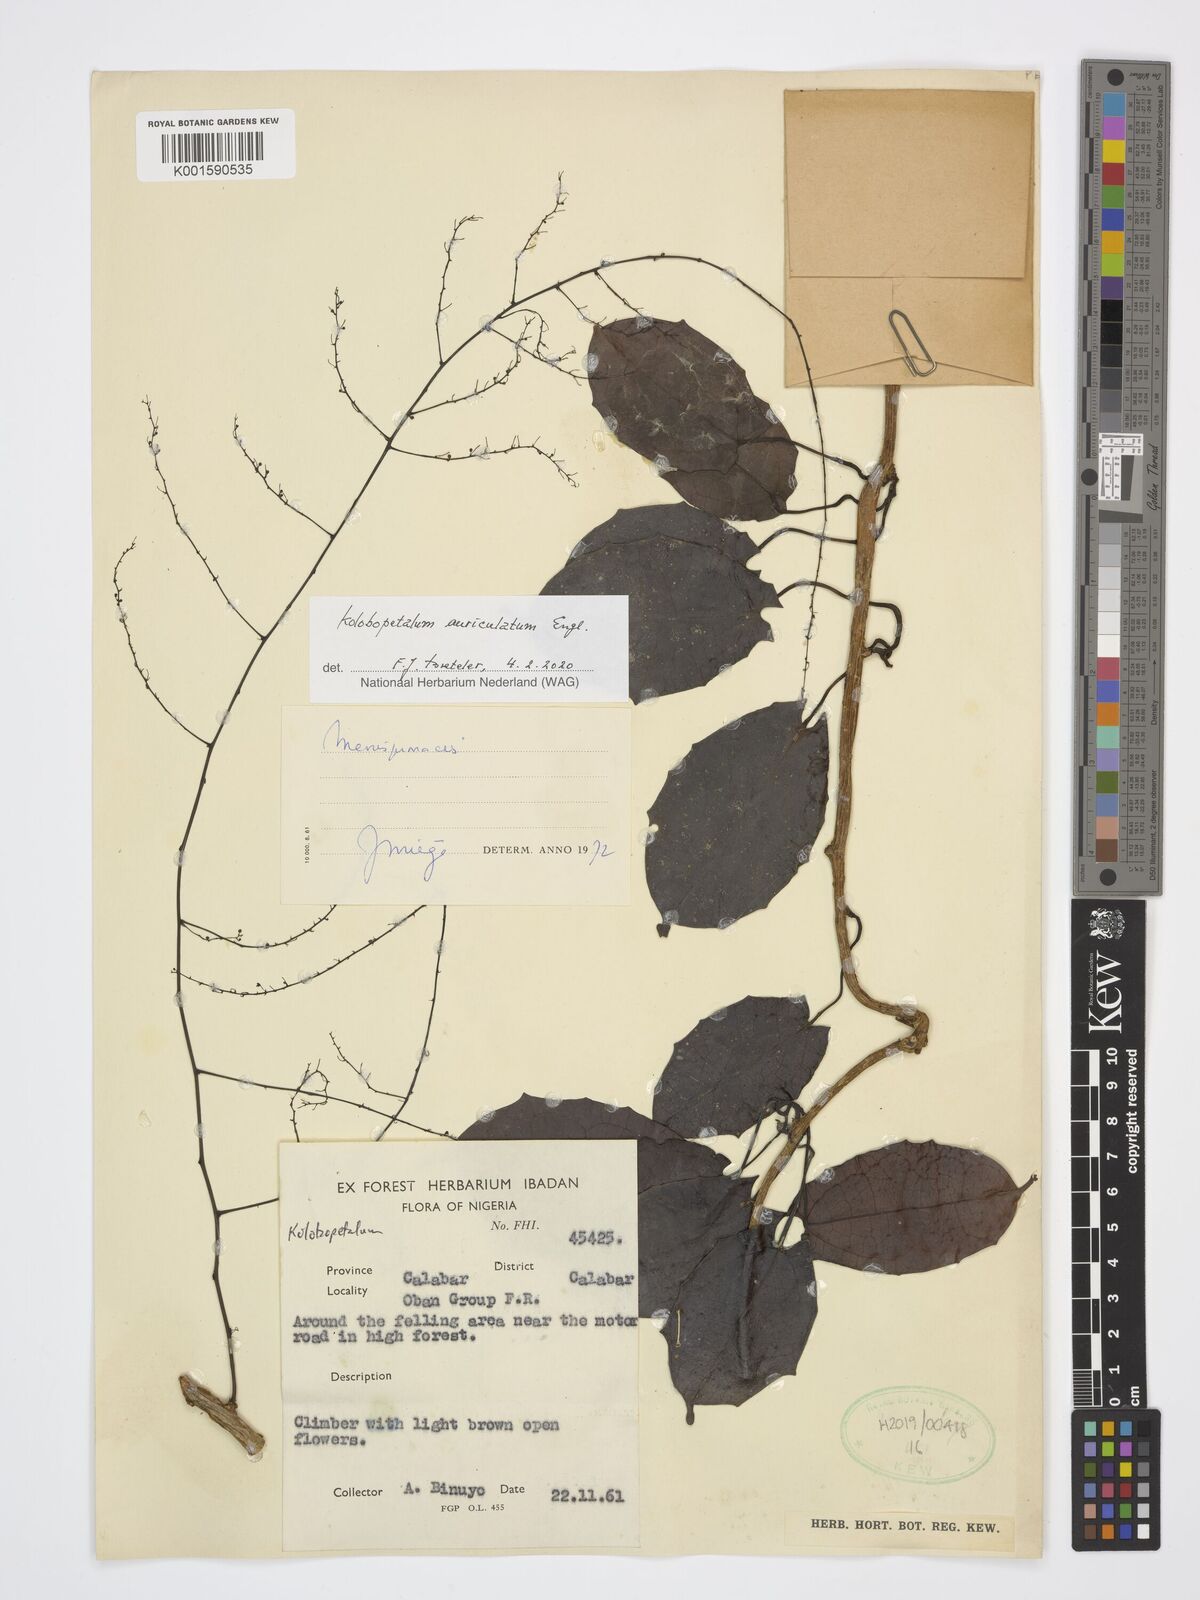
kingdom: Plantae
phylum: Tracheophyta
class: Magnoliopsida
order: Ranunculales
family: Menispermaceae
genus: Kolobopetalum
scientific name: Kolobopetalum auriculatum
